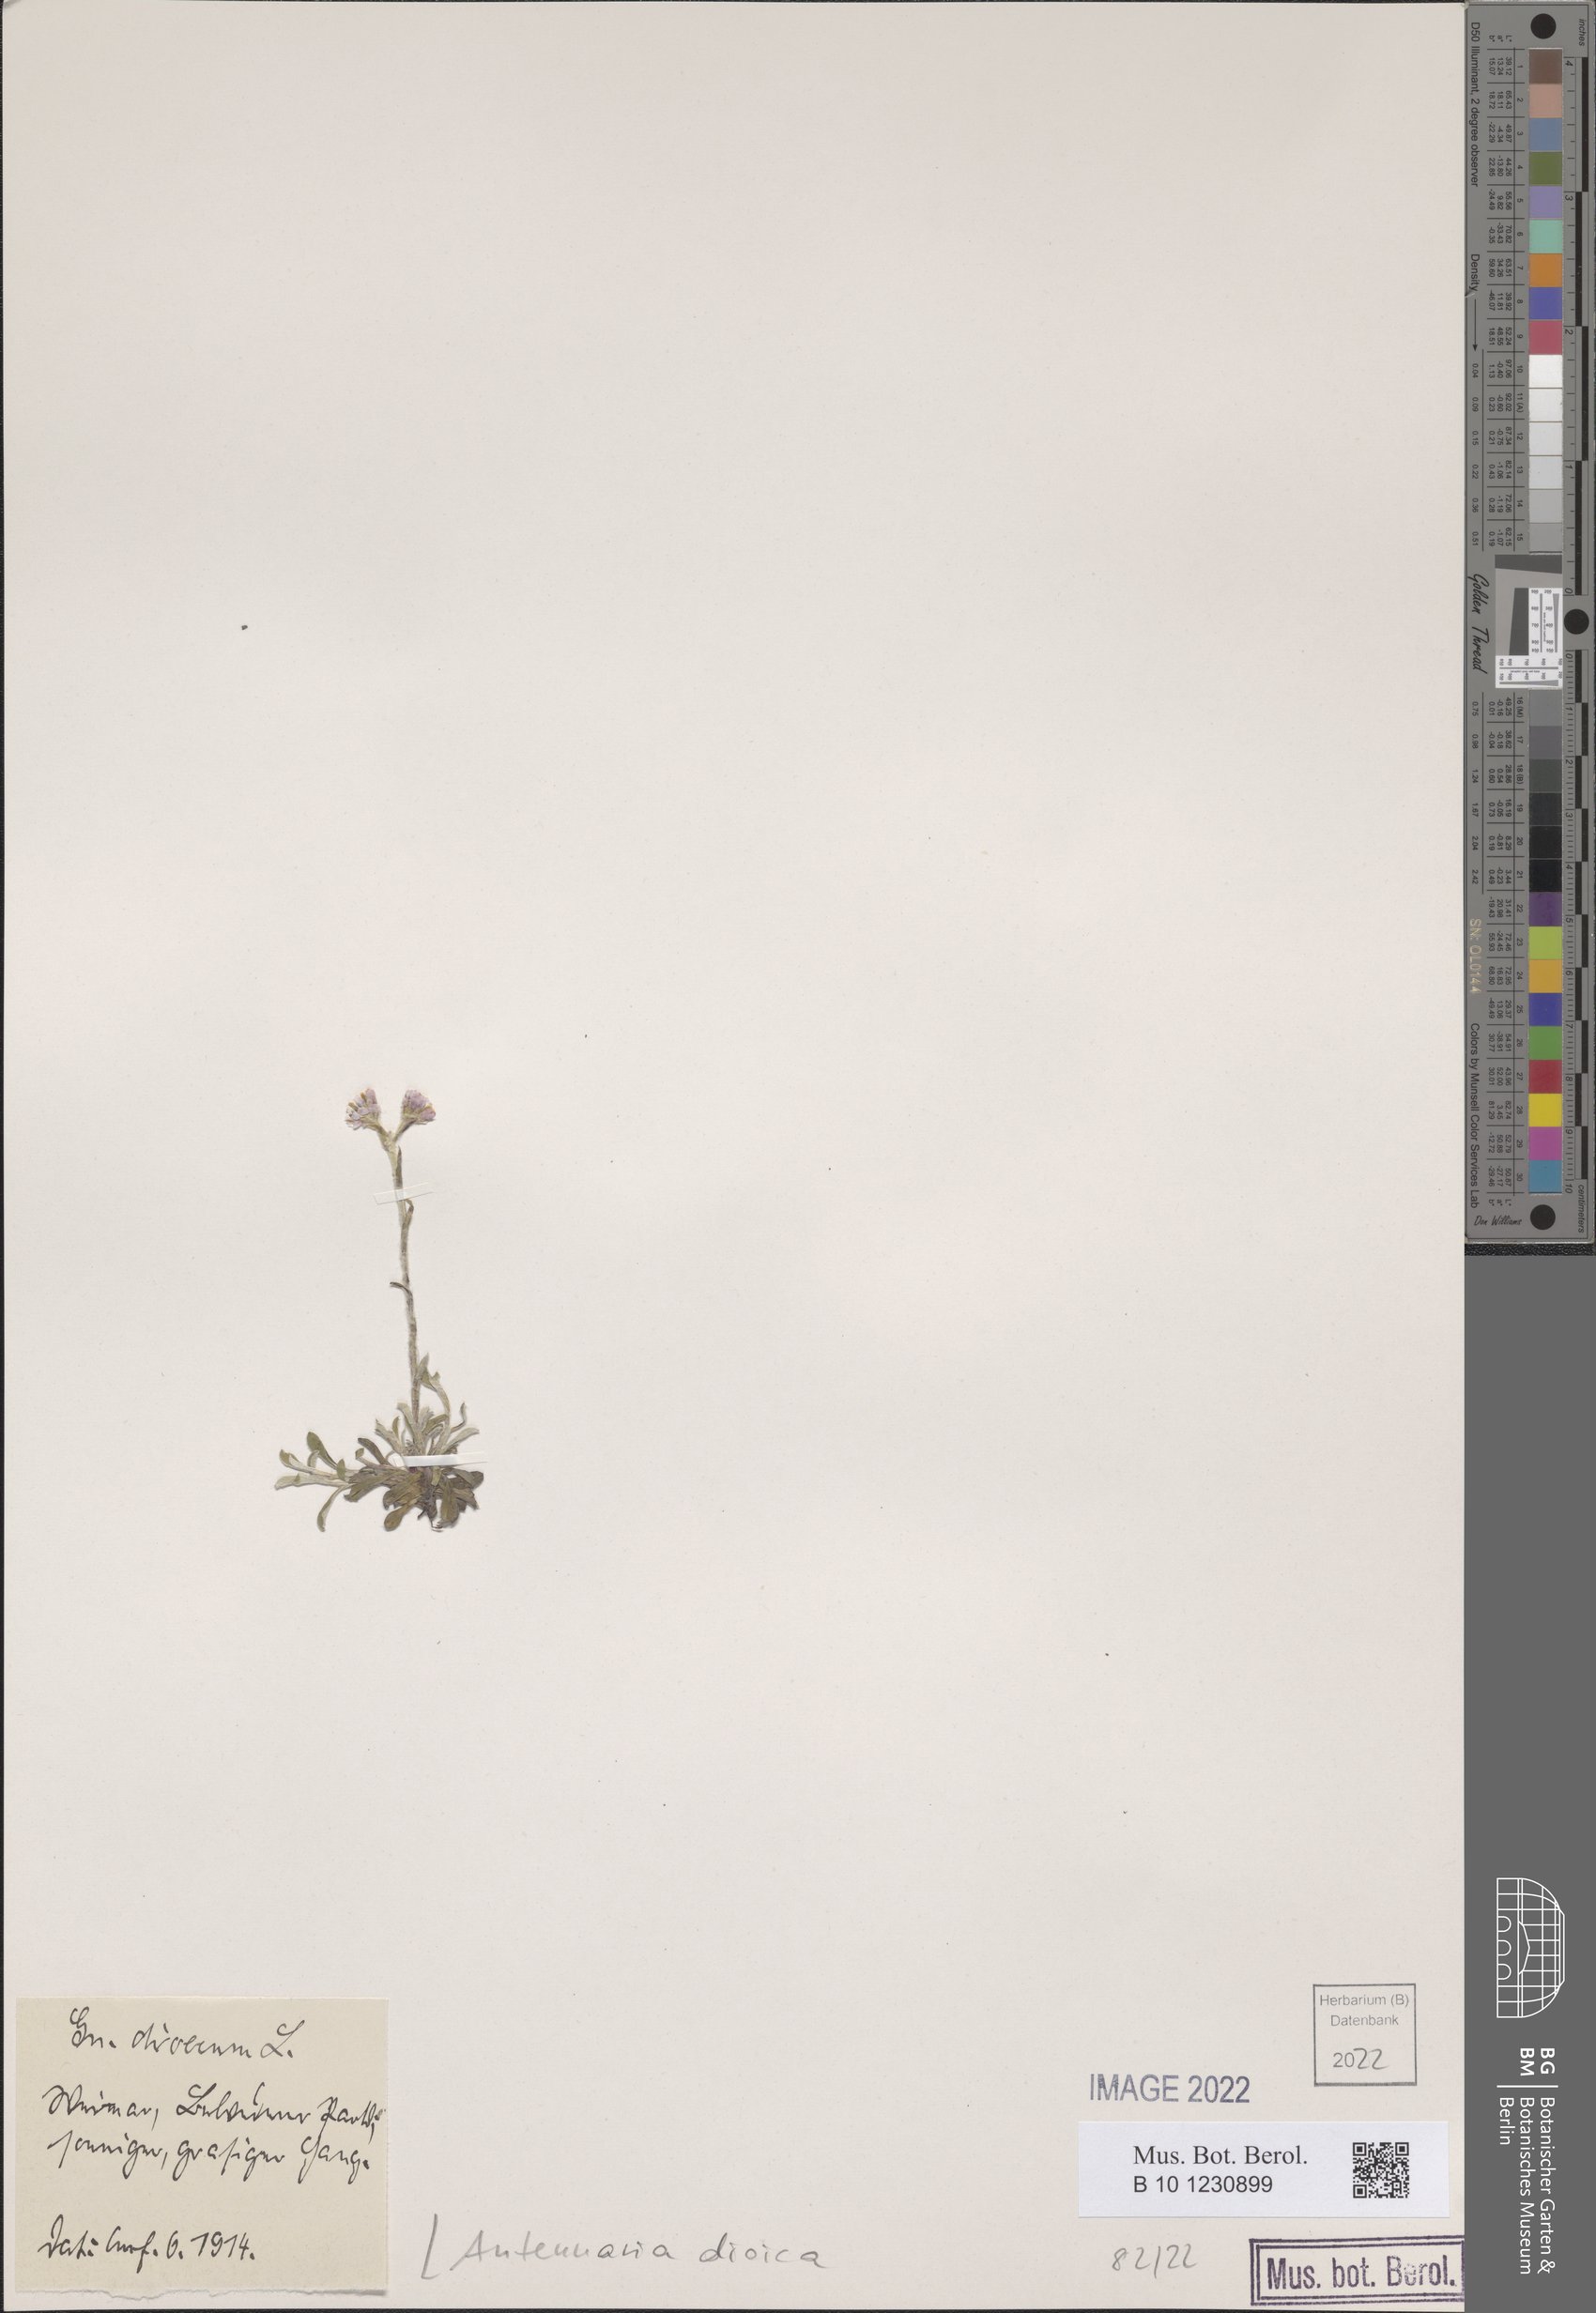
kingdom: Plantae
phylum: Tracheophyta
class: Magnoliopsida
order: Asterales
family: Asteraceae
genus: Antennaria
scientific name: Antennaria dioica
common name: Mountain everlasting
